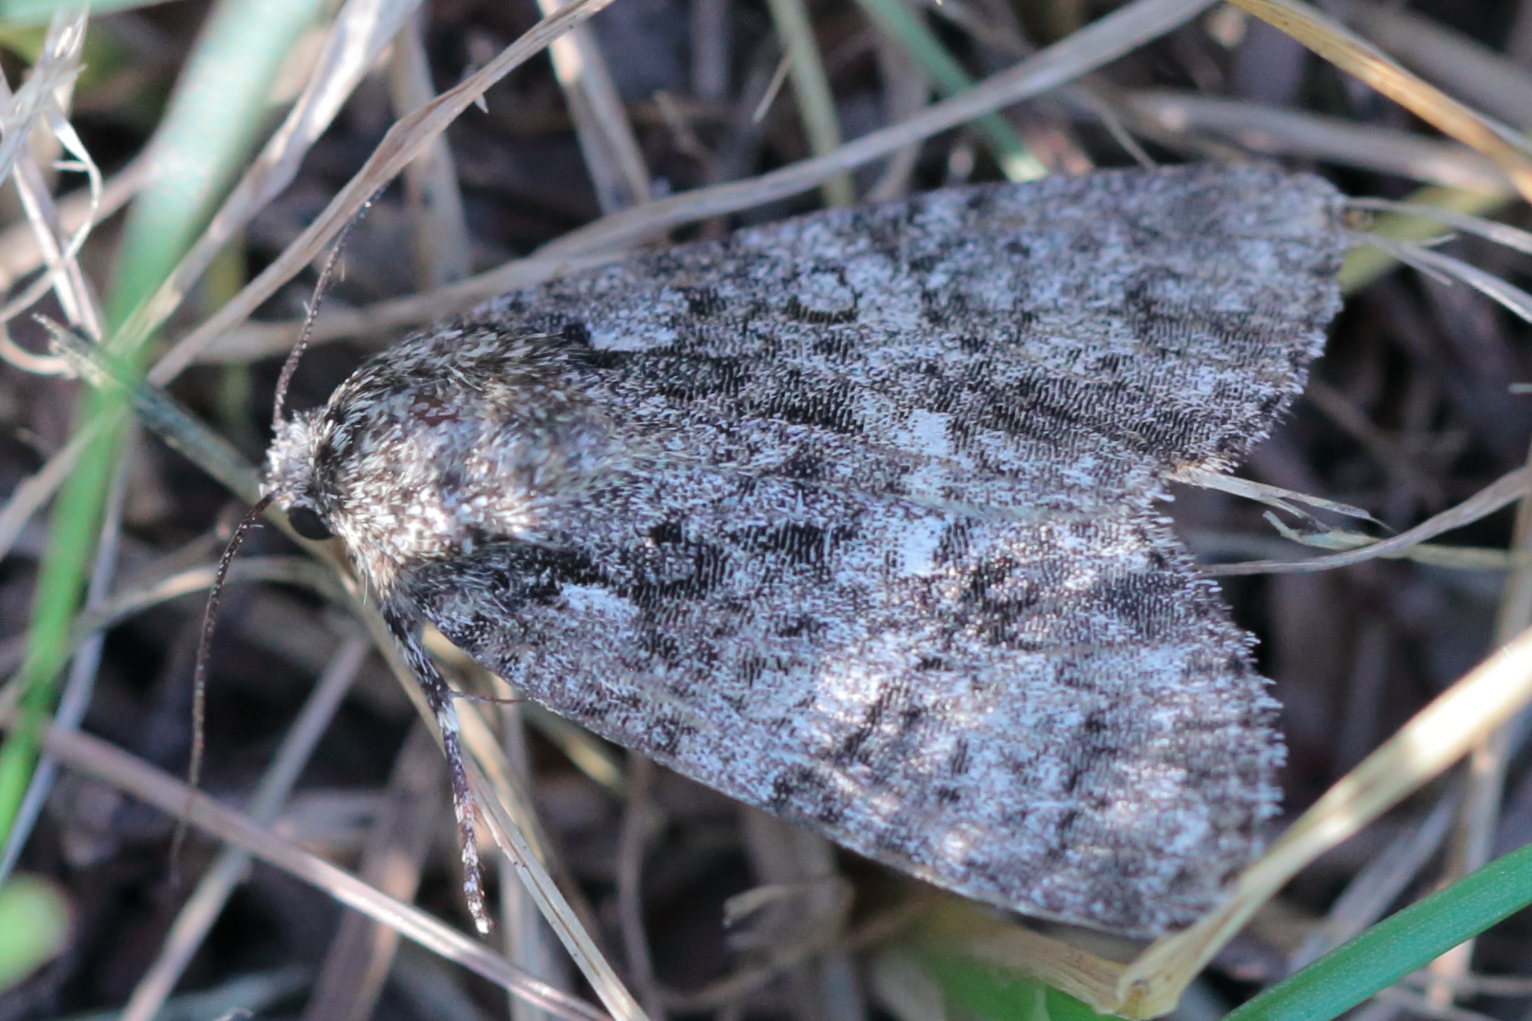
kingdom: Animalia
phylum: Arthropoda
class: Insecta
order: Lepidoptera
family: Noctuidae
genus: Acronicta
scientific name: Acronicta rumicis
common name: Knot grass
